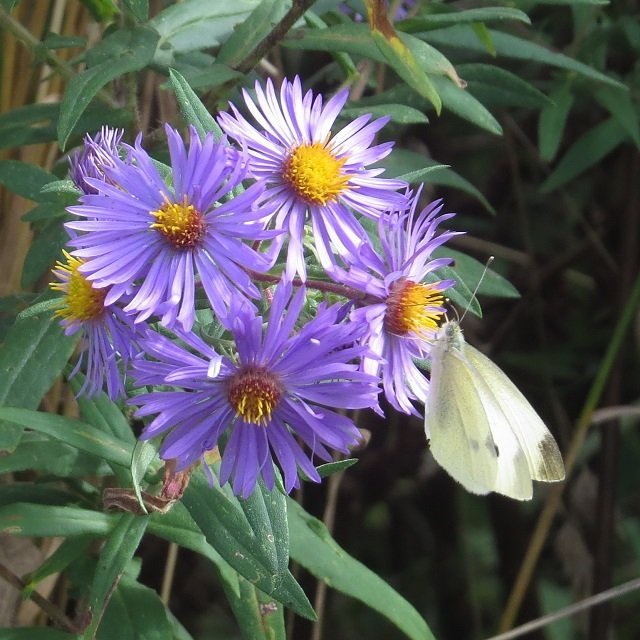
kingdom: Animalia
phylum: Arthropoda
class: Insecta
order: Lepidoptera
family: Pieridae
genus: Pieris
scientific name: Pieris rapae
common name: Cabbage White
